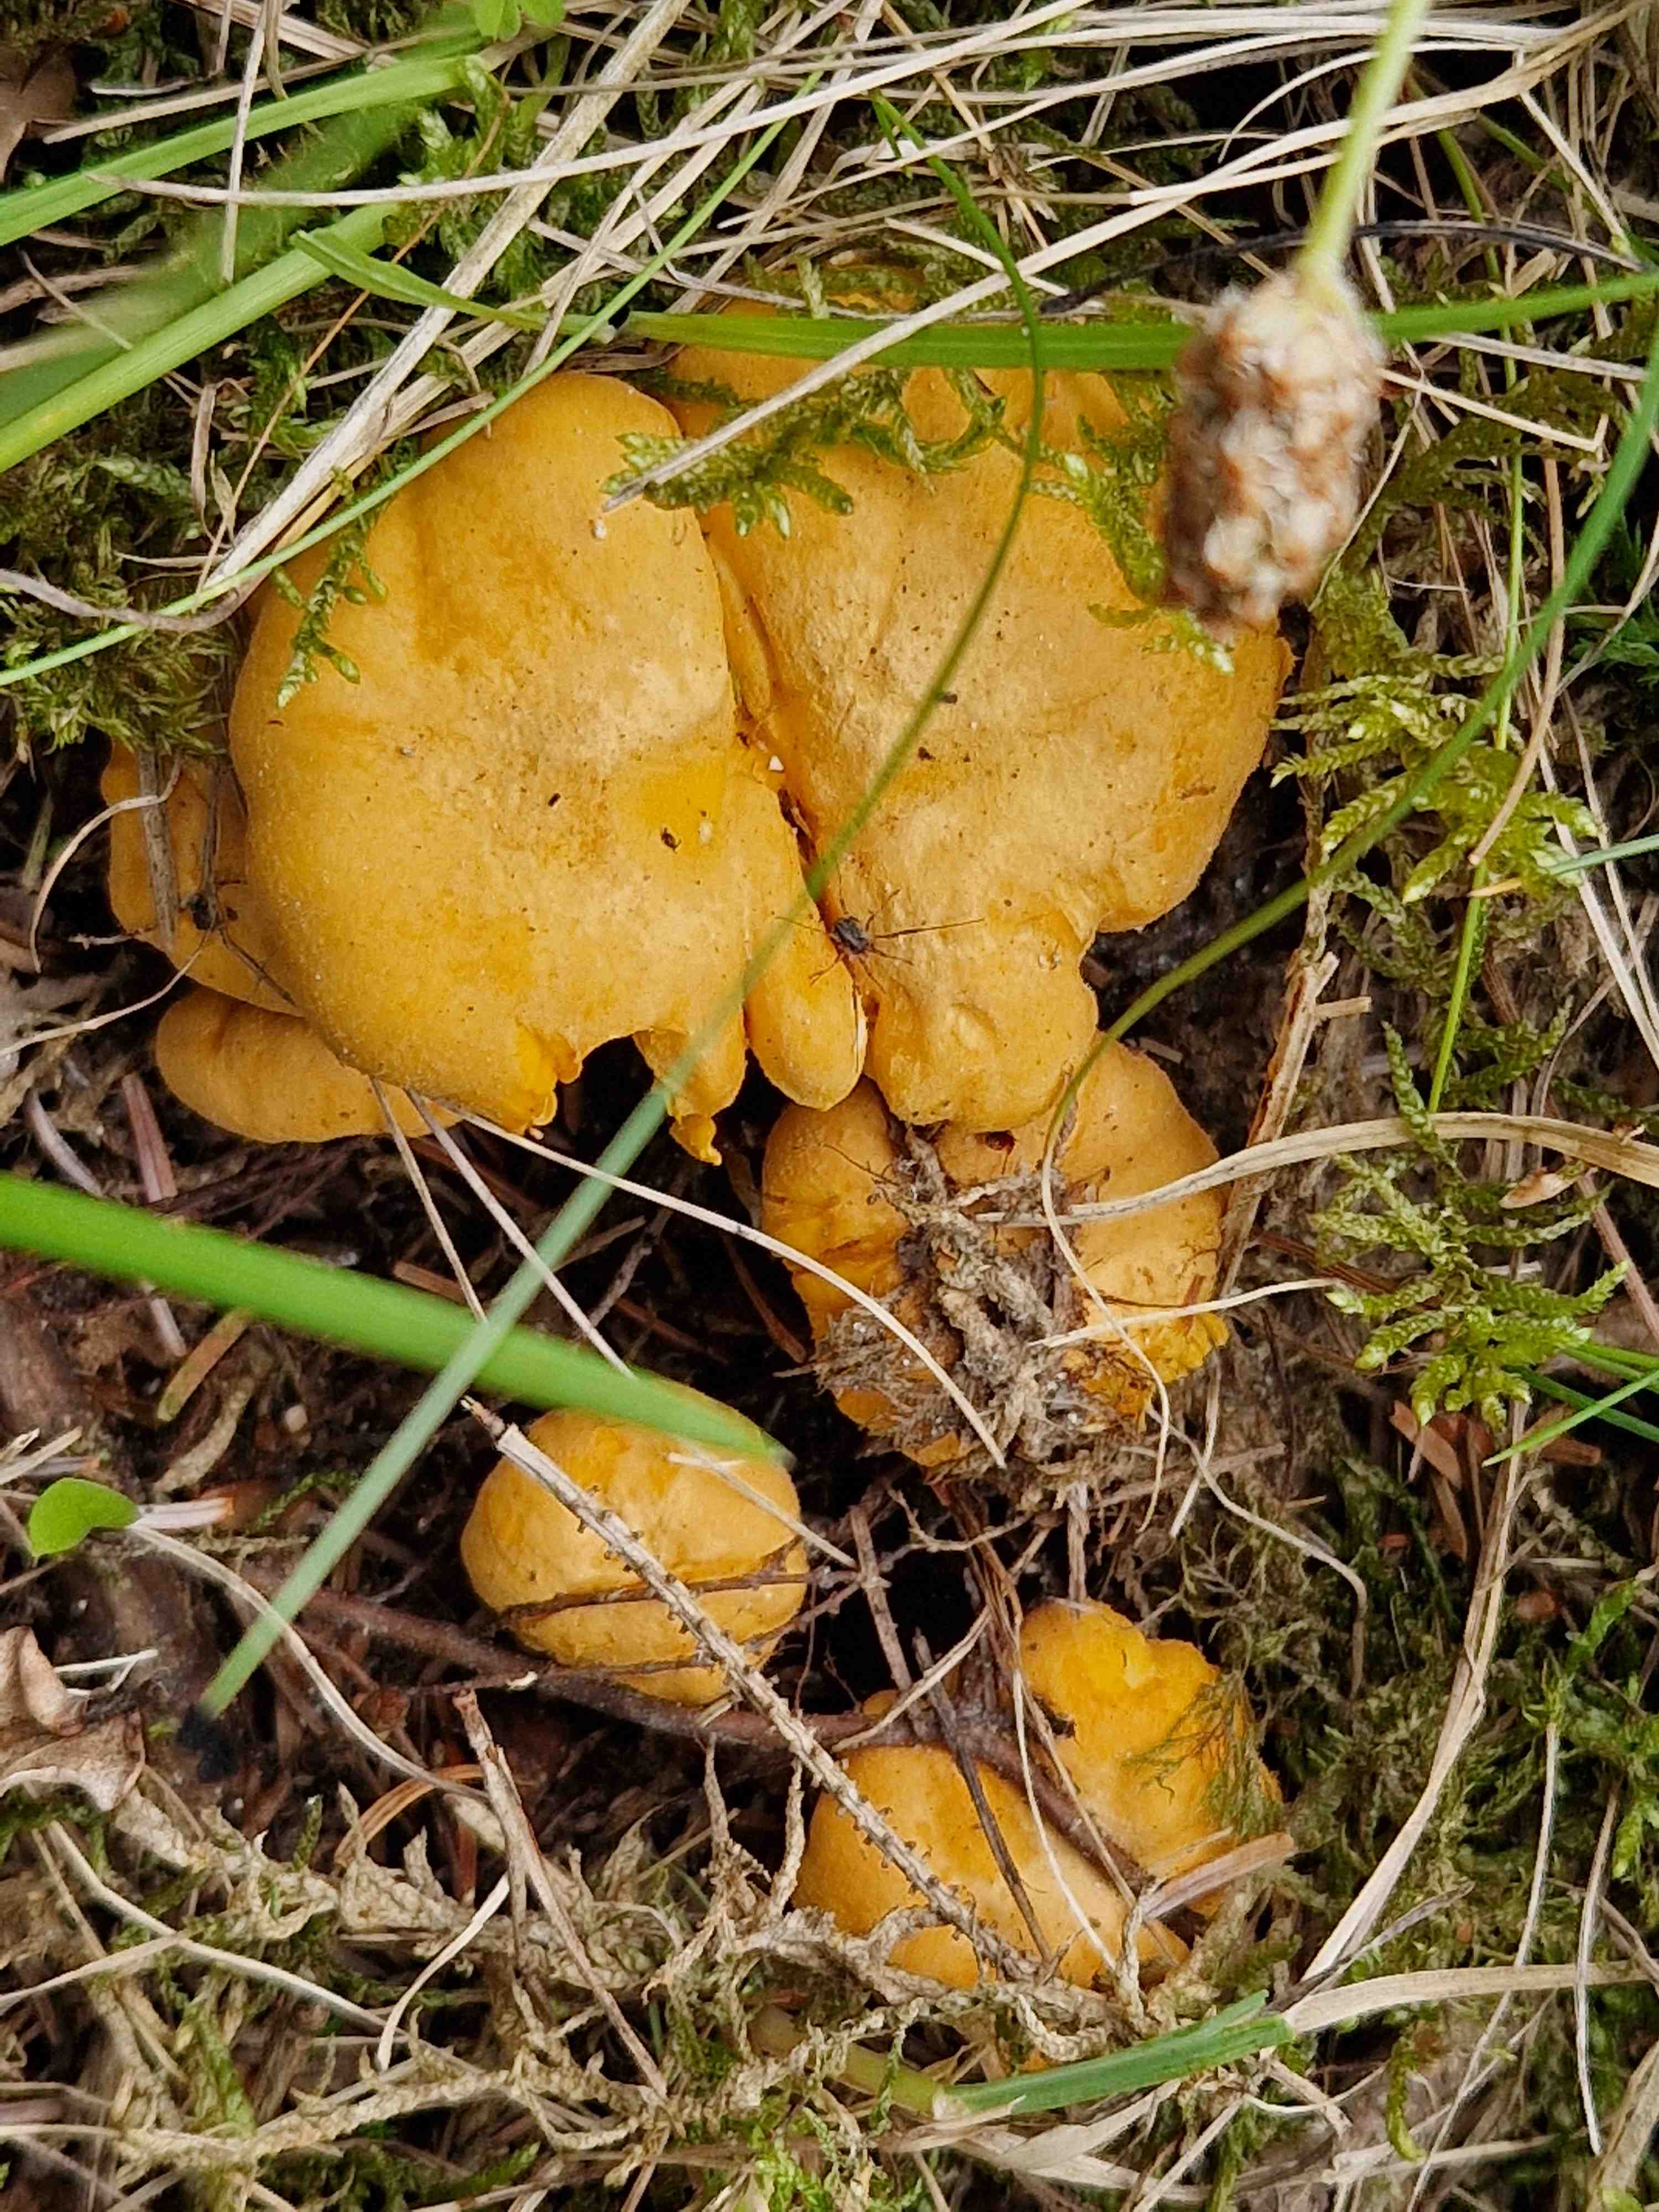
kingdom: Fungi
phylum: Basidiomycota
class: Agaricomycetes
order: Cantharellales
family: Hydnaceae
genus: Cantharellus
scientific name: Cantharellus cibarius
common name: almindelig kantarel
